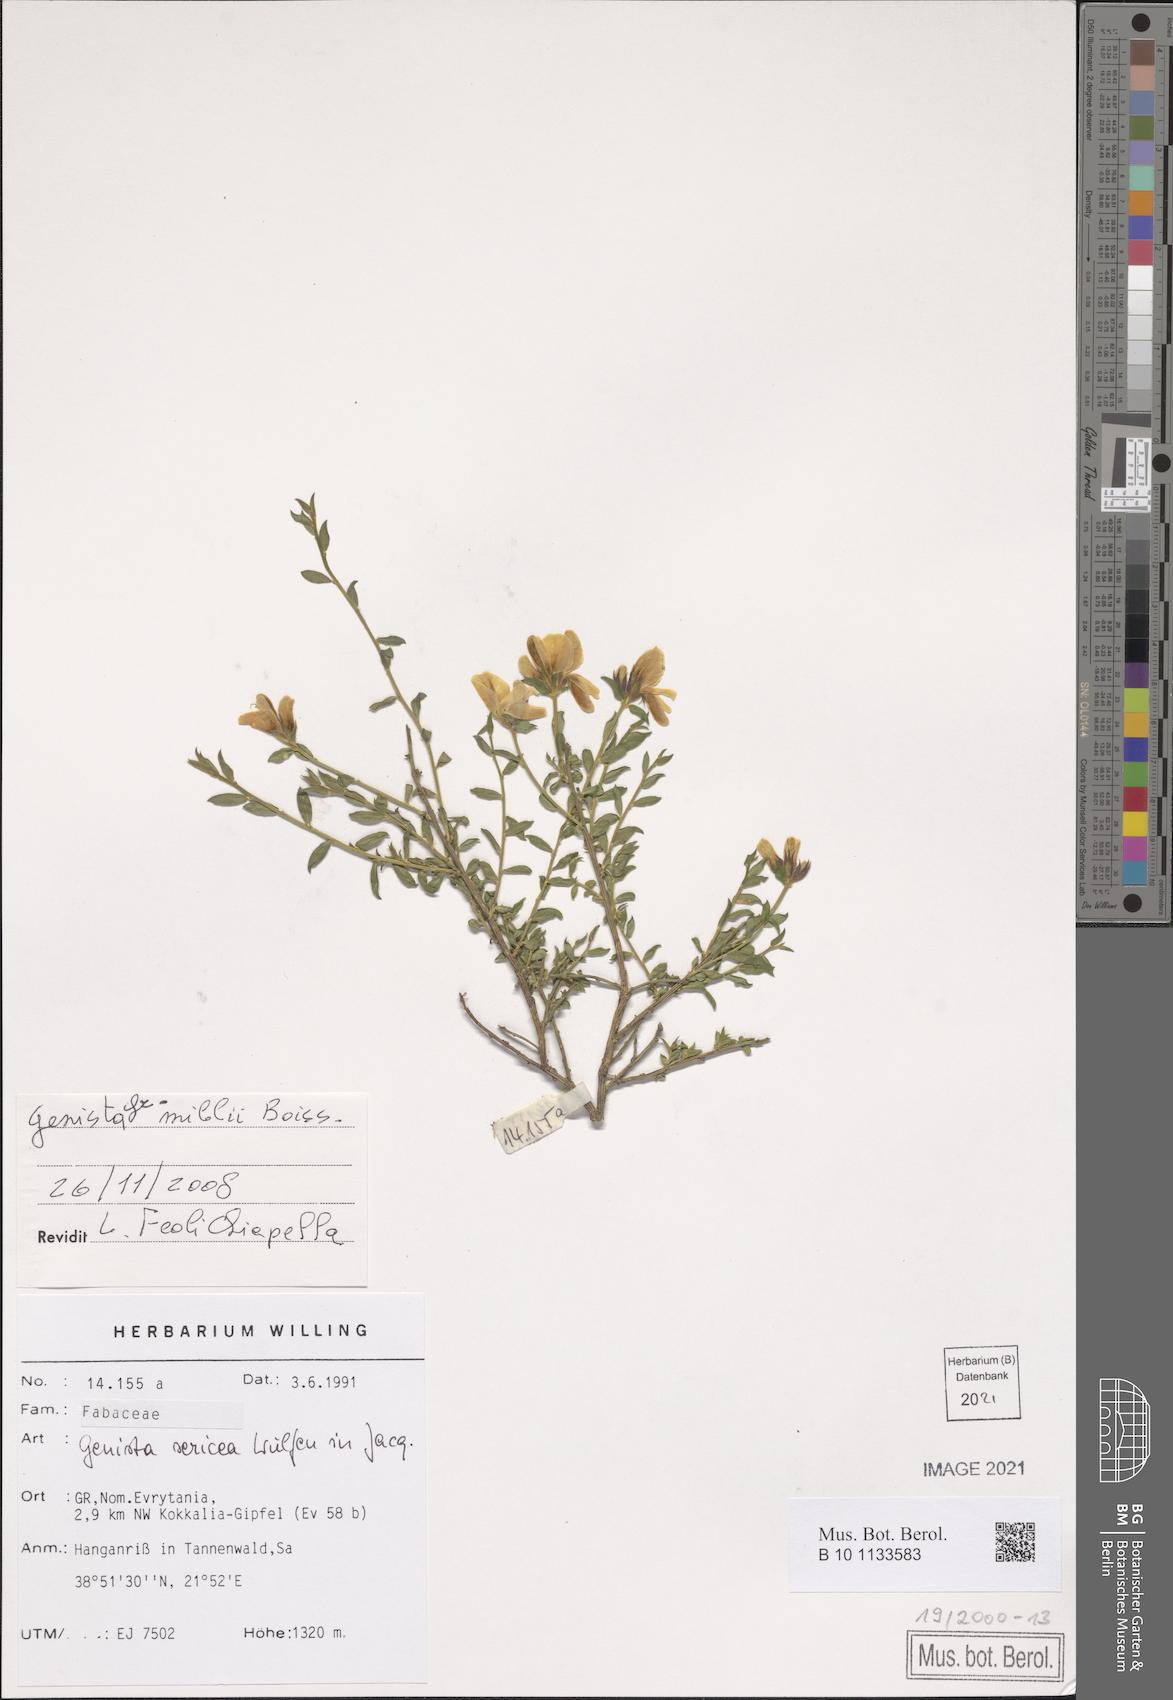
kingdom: Plantae
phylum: Tracheophyta
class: Magnoliopsida
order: Fabales
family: Fabaceae
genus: Genista
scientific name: Genista millii
